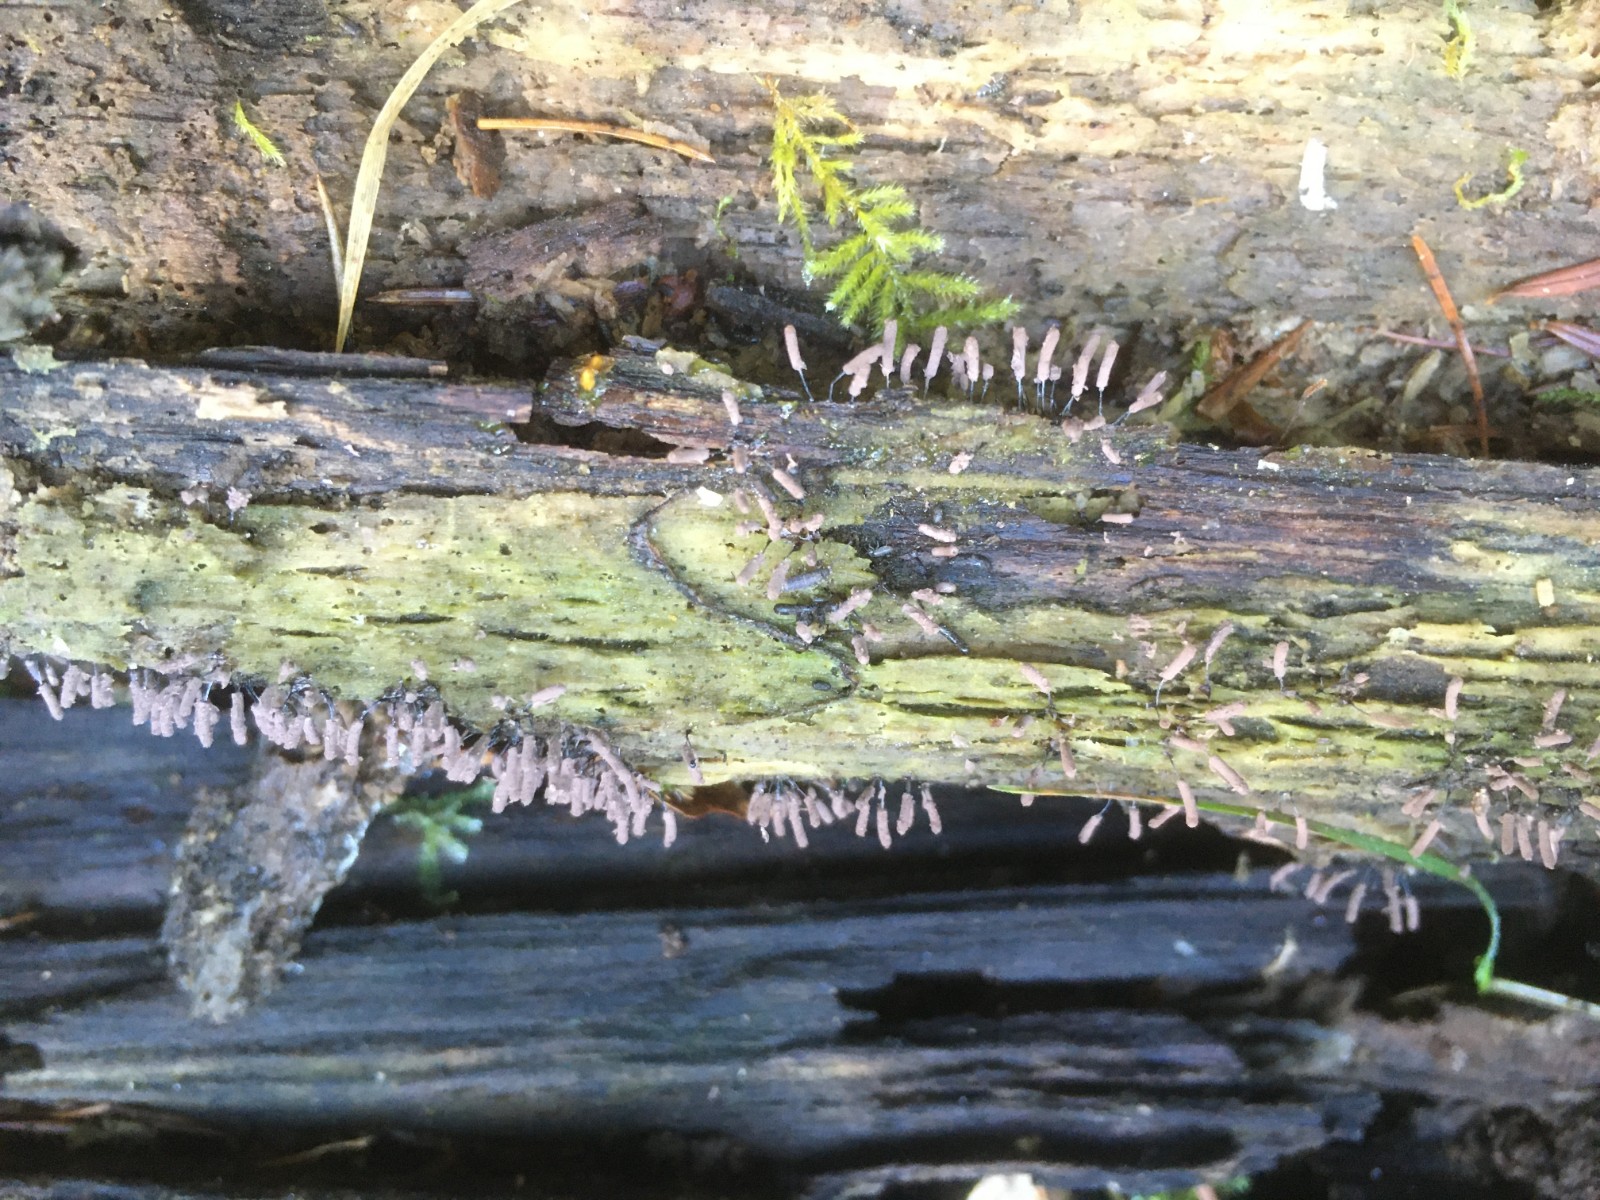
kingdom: Protozoa
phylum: Mycetozoa
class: Myxomycetes
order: Stemonitidales
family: Stemonitidaceae
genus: Stemonitopsis
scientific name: Stemonitopsis typhina
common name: skinnende støvkølle
